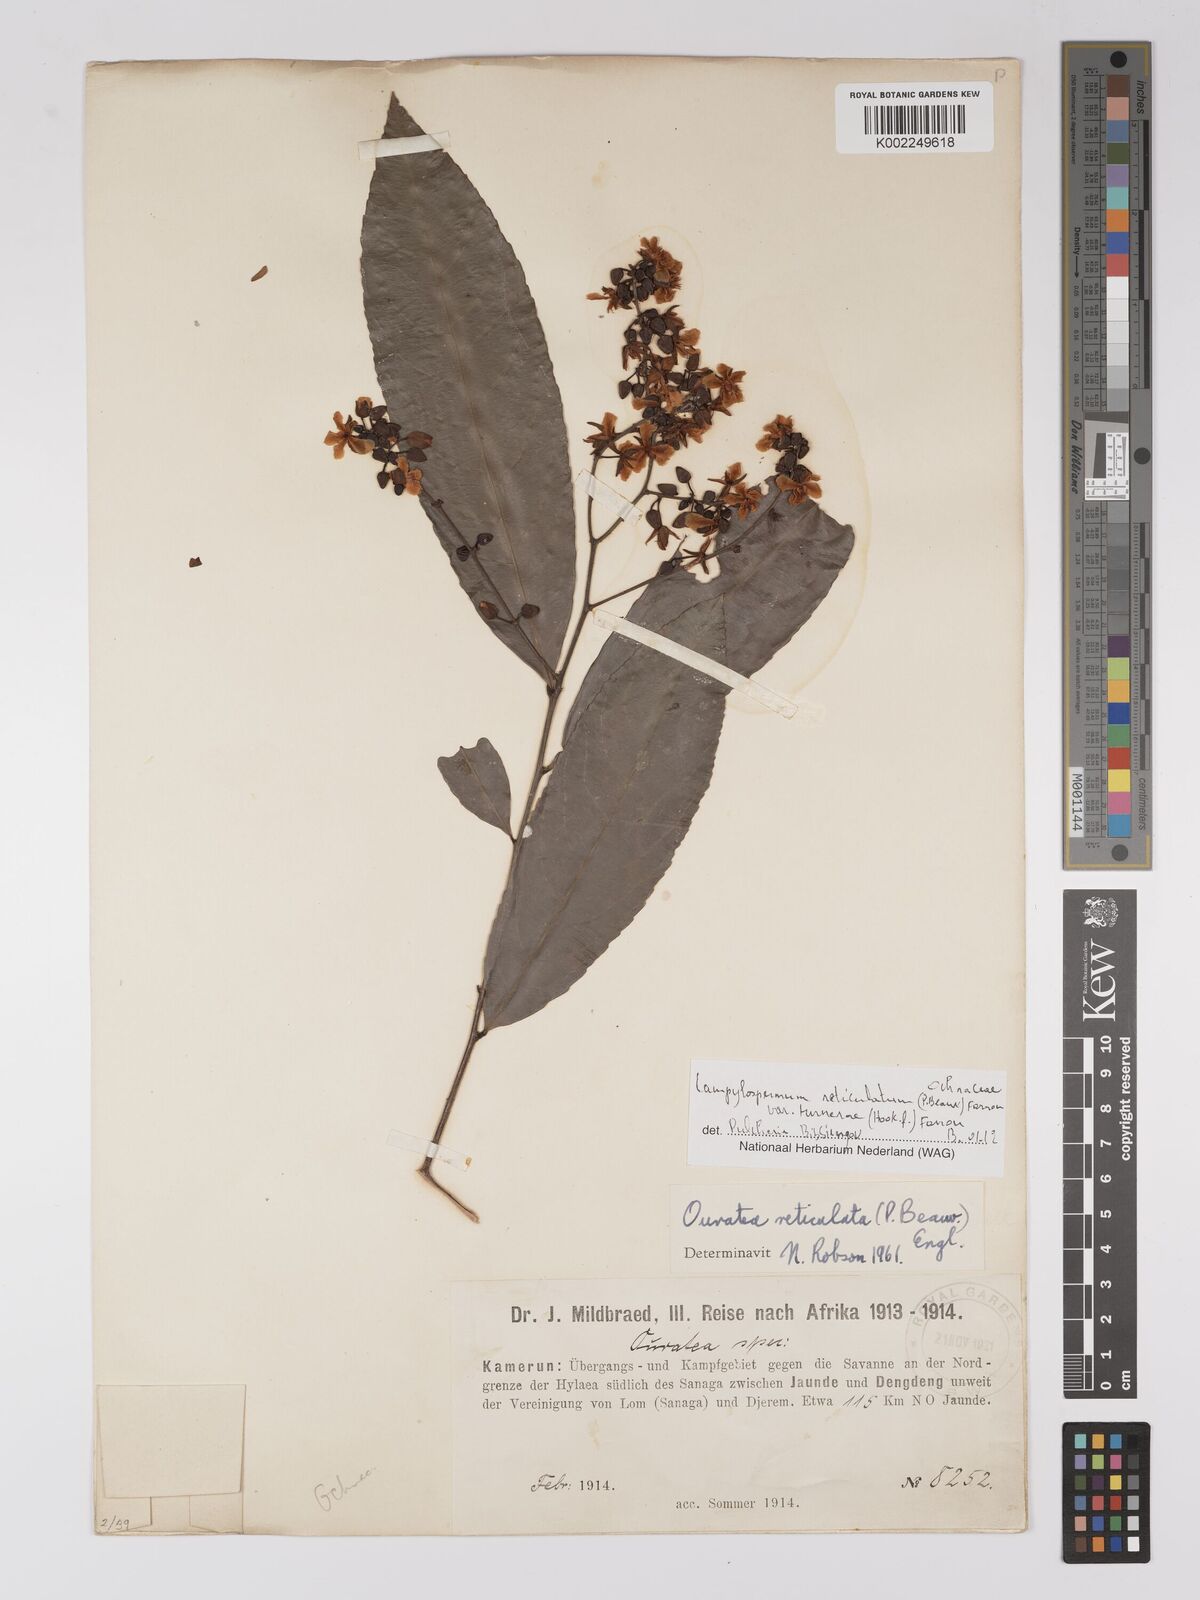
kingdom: Plantae
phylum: Tracheophyta
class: Magnoliopsida
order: Malpighiales
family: Ochnaceae
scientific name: Ochnaceae
